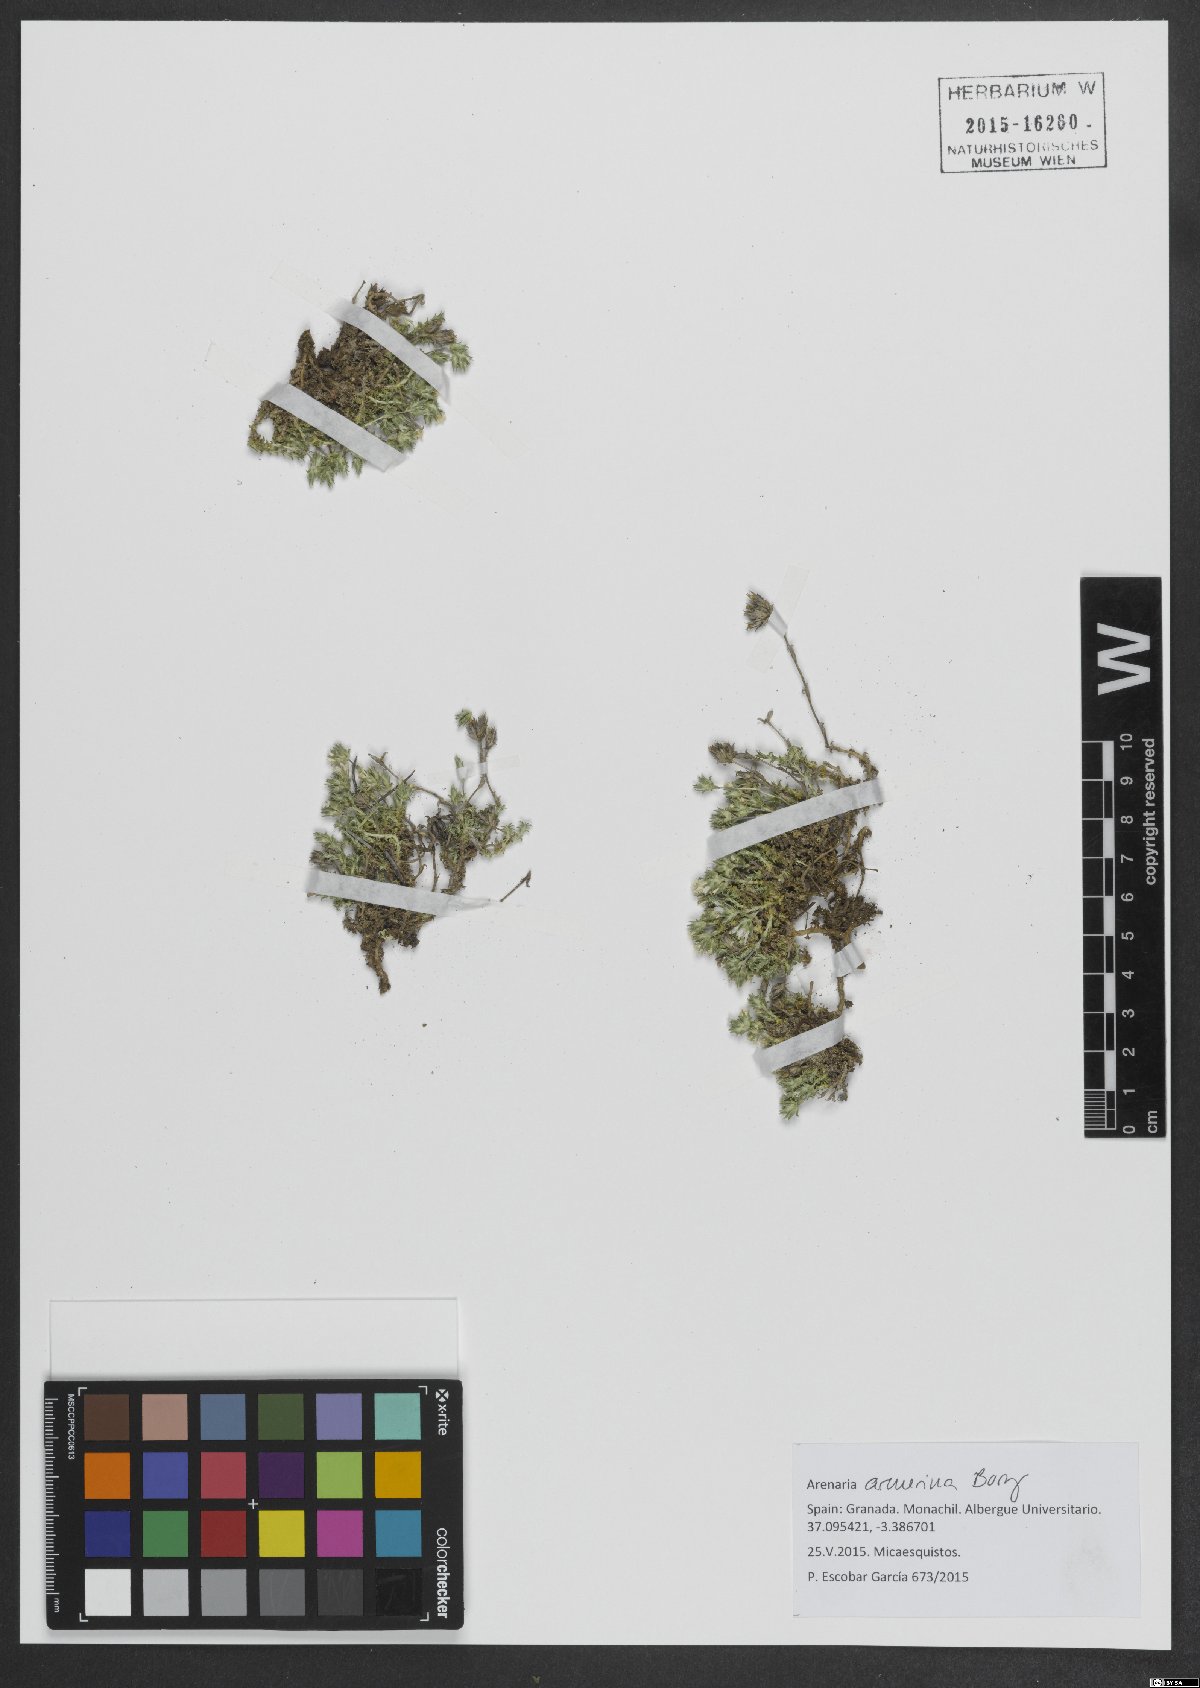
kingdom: Plantae
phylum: Tracheophyta
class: Magnoliopsida
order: Caryophyllales
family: Caryophyllaceae
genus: Arenaria
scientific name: Arenaria armerina
